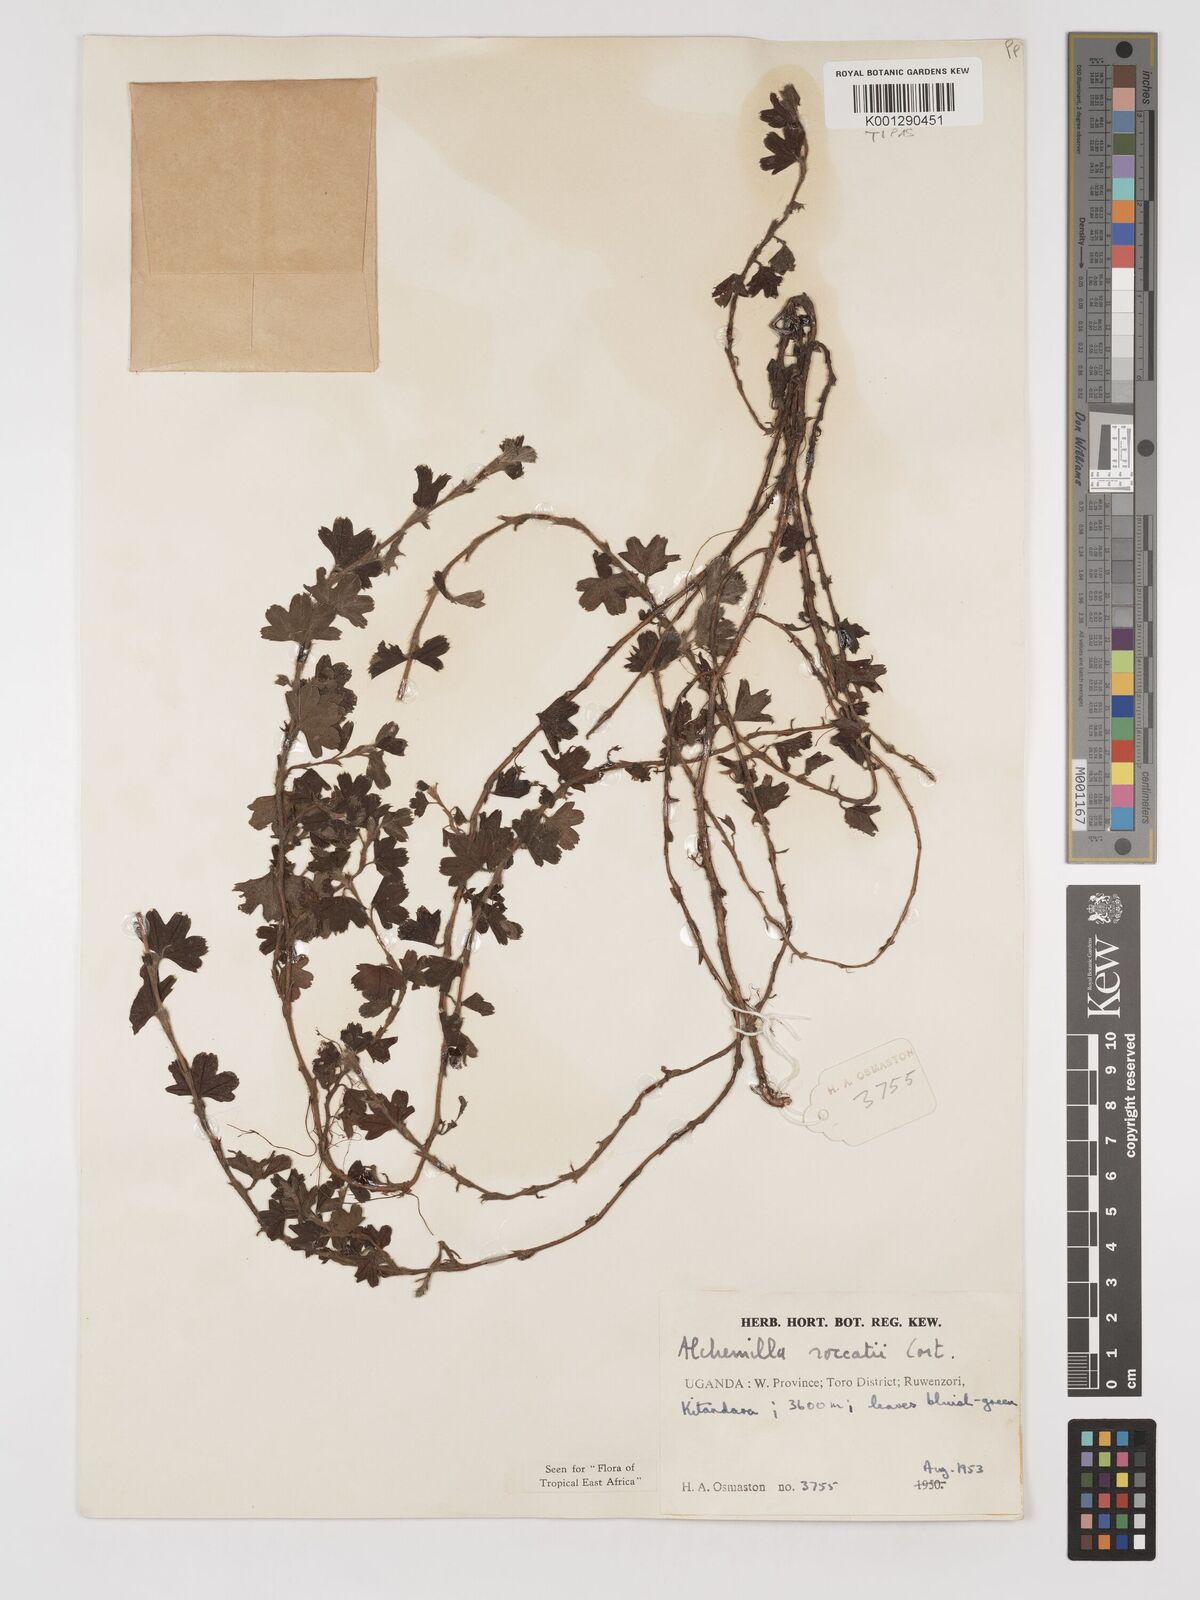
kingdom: Plantae
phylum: Tracheophyta
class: Magnoliopsida
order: Rosales
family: Rosaceae
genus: Alchemilla
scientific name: Alchemilla roccatii
